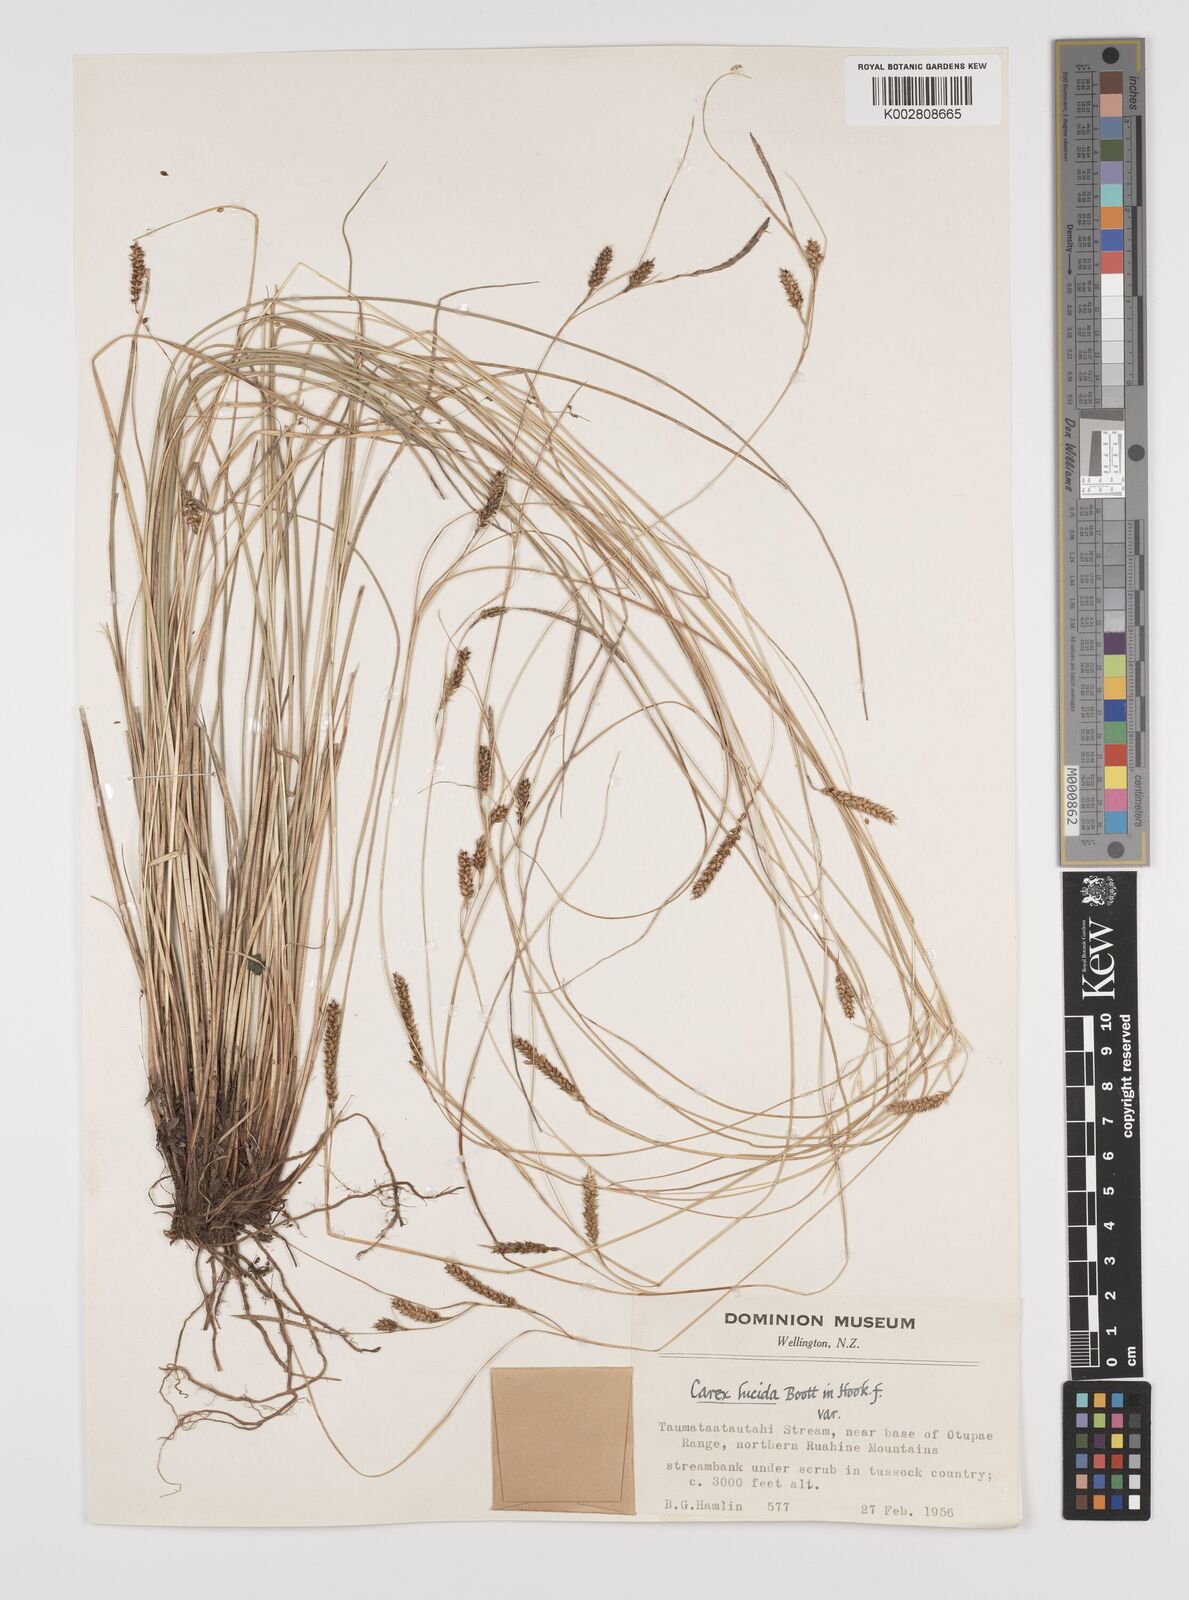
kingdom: Plantae
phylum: Tracheophyta
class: Liliopsida
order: Poales
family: Cyperaceae
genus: Carex
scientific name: Carex flagellifera
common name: Glen murray tussock
